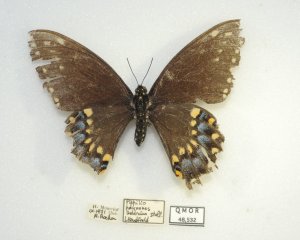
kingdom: Animalia
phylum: Arthropoda
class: Insecta
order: Lepidoptera
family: Papilionidae
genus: Papilio
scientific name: Papilio polyxenes
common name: Black Swallowtail
